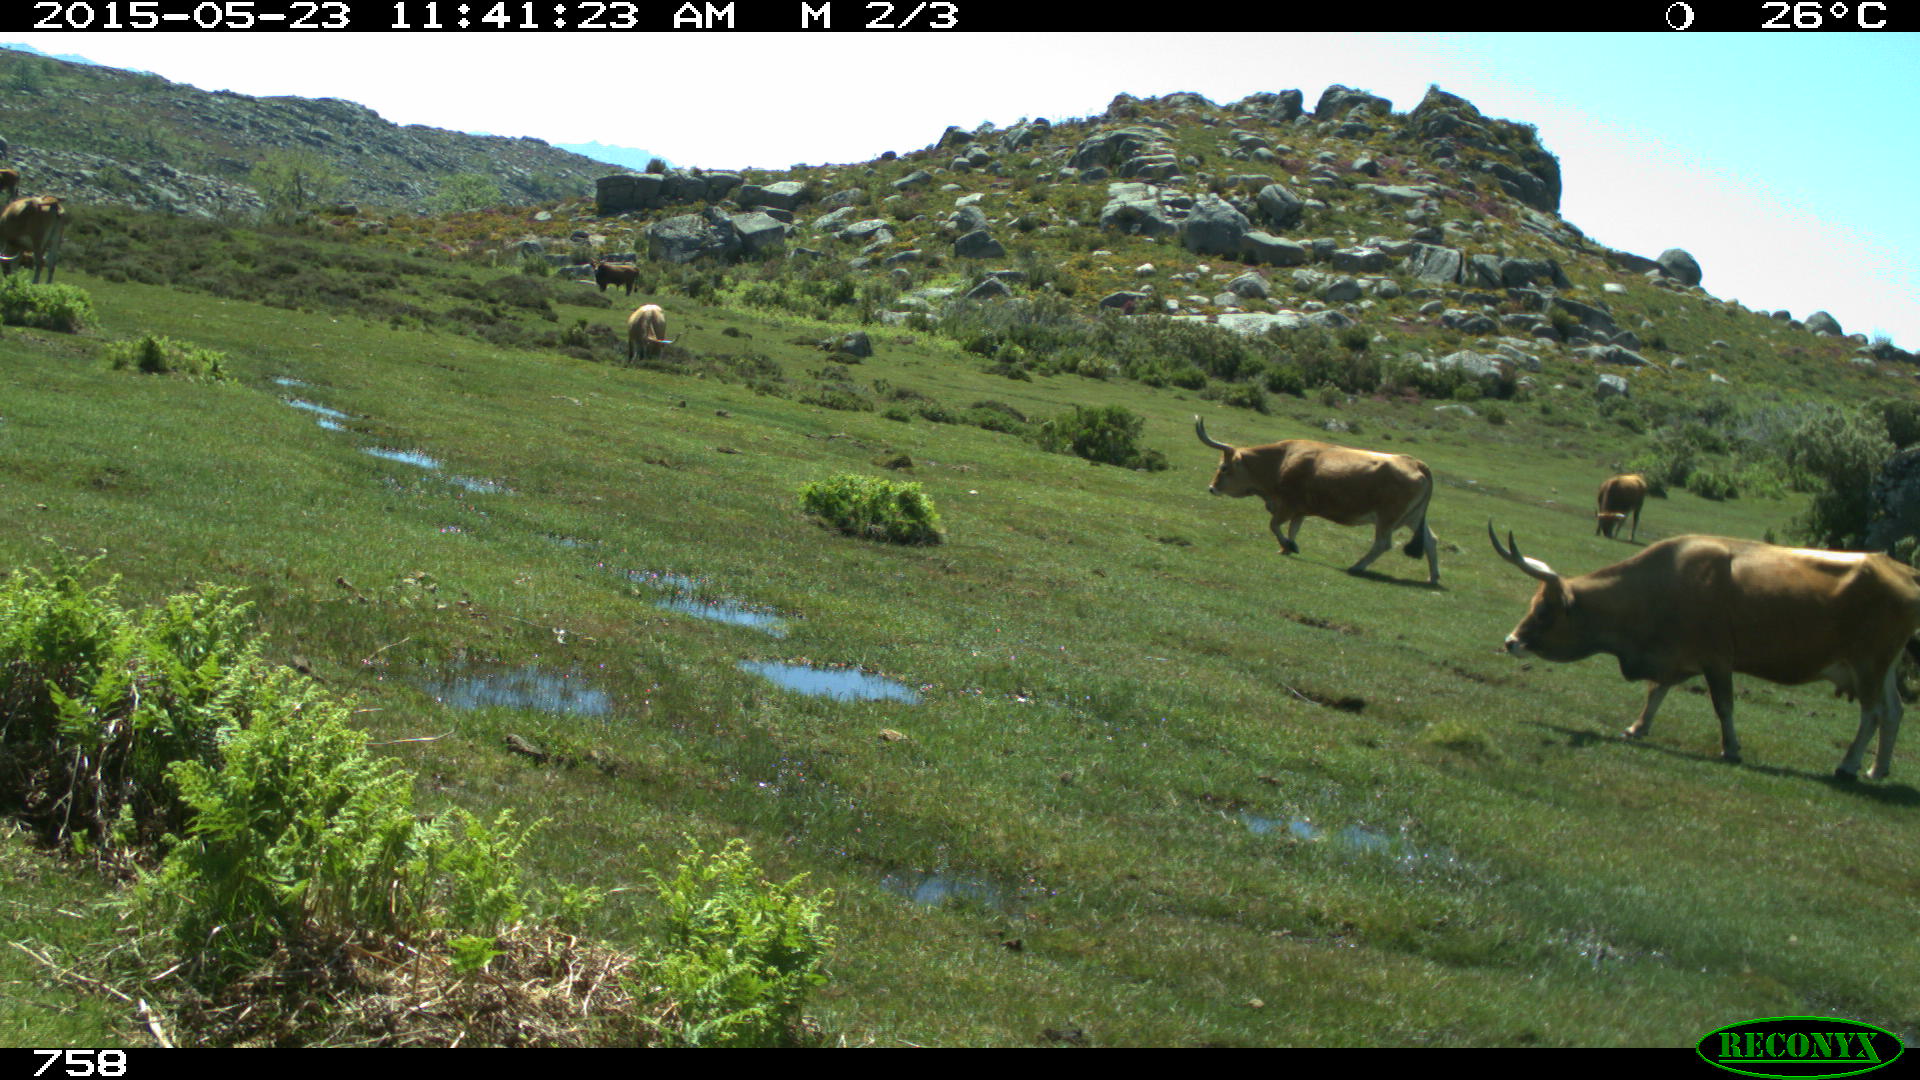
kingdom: Animalia
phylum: Chordata
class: Mammalia
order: Artiodactyla
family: Bovidae
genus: Bos
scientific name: Bos taurus
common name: Domesticated cattle
